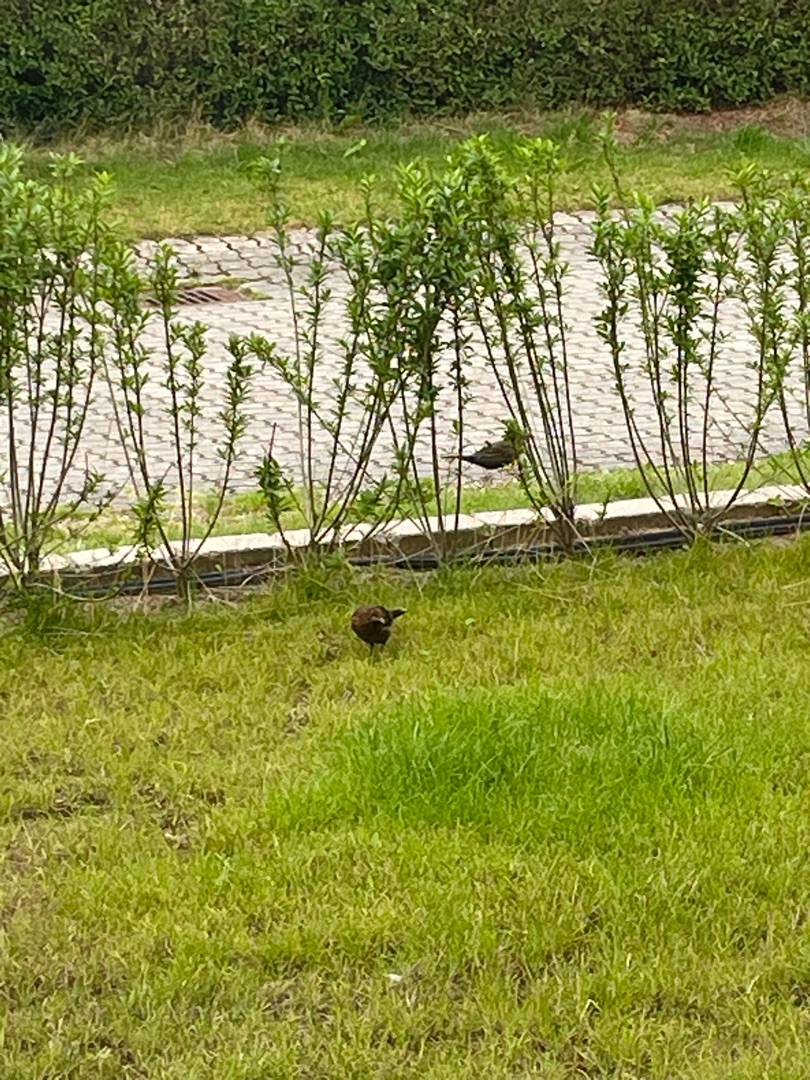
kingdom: Animalia
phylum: Chordata
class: Aves
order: Passeriformes
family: Turdidae
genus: Turdus
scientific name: Turdus merula
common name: Solsort
